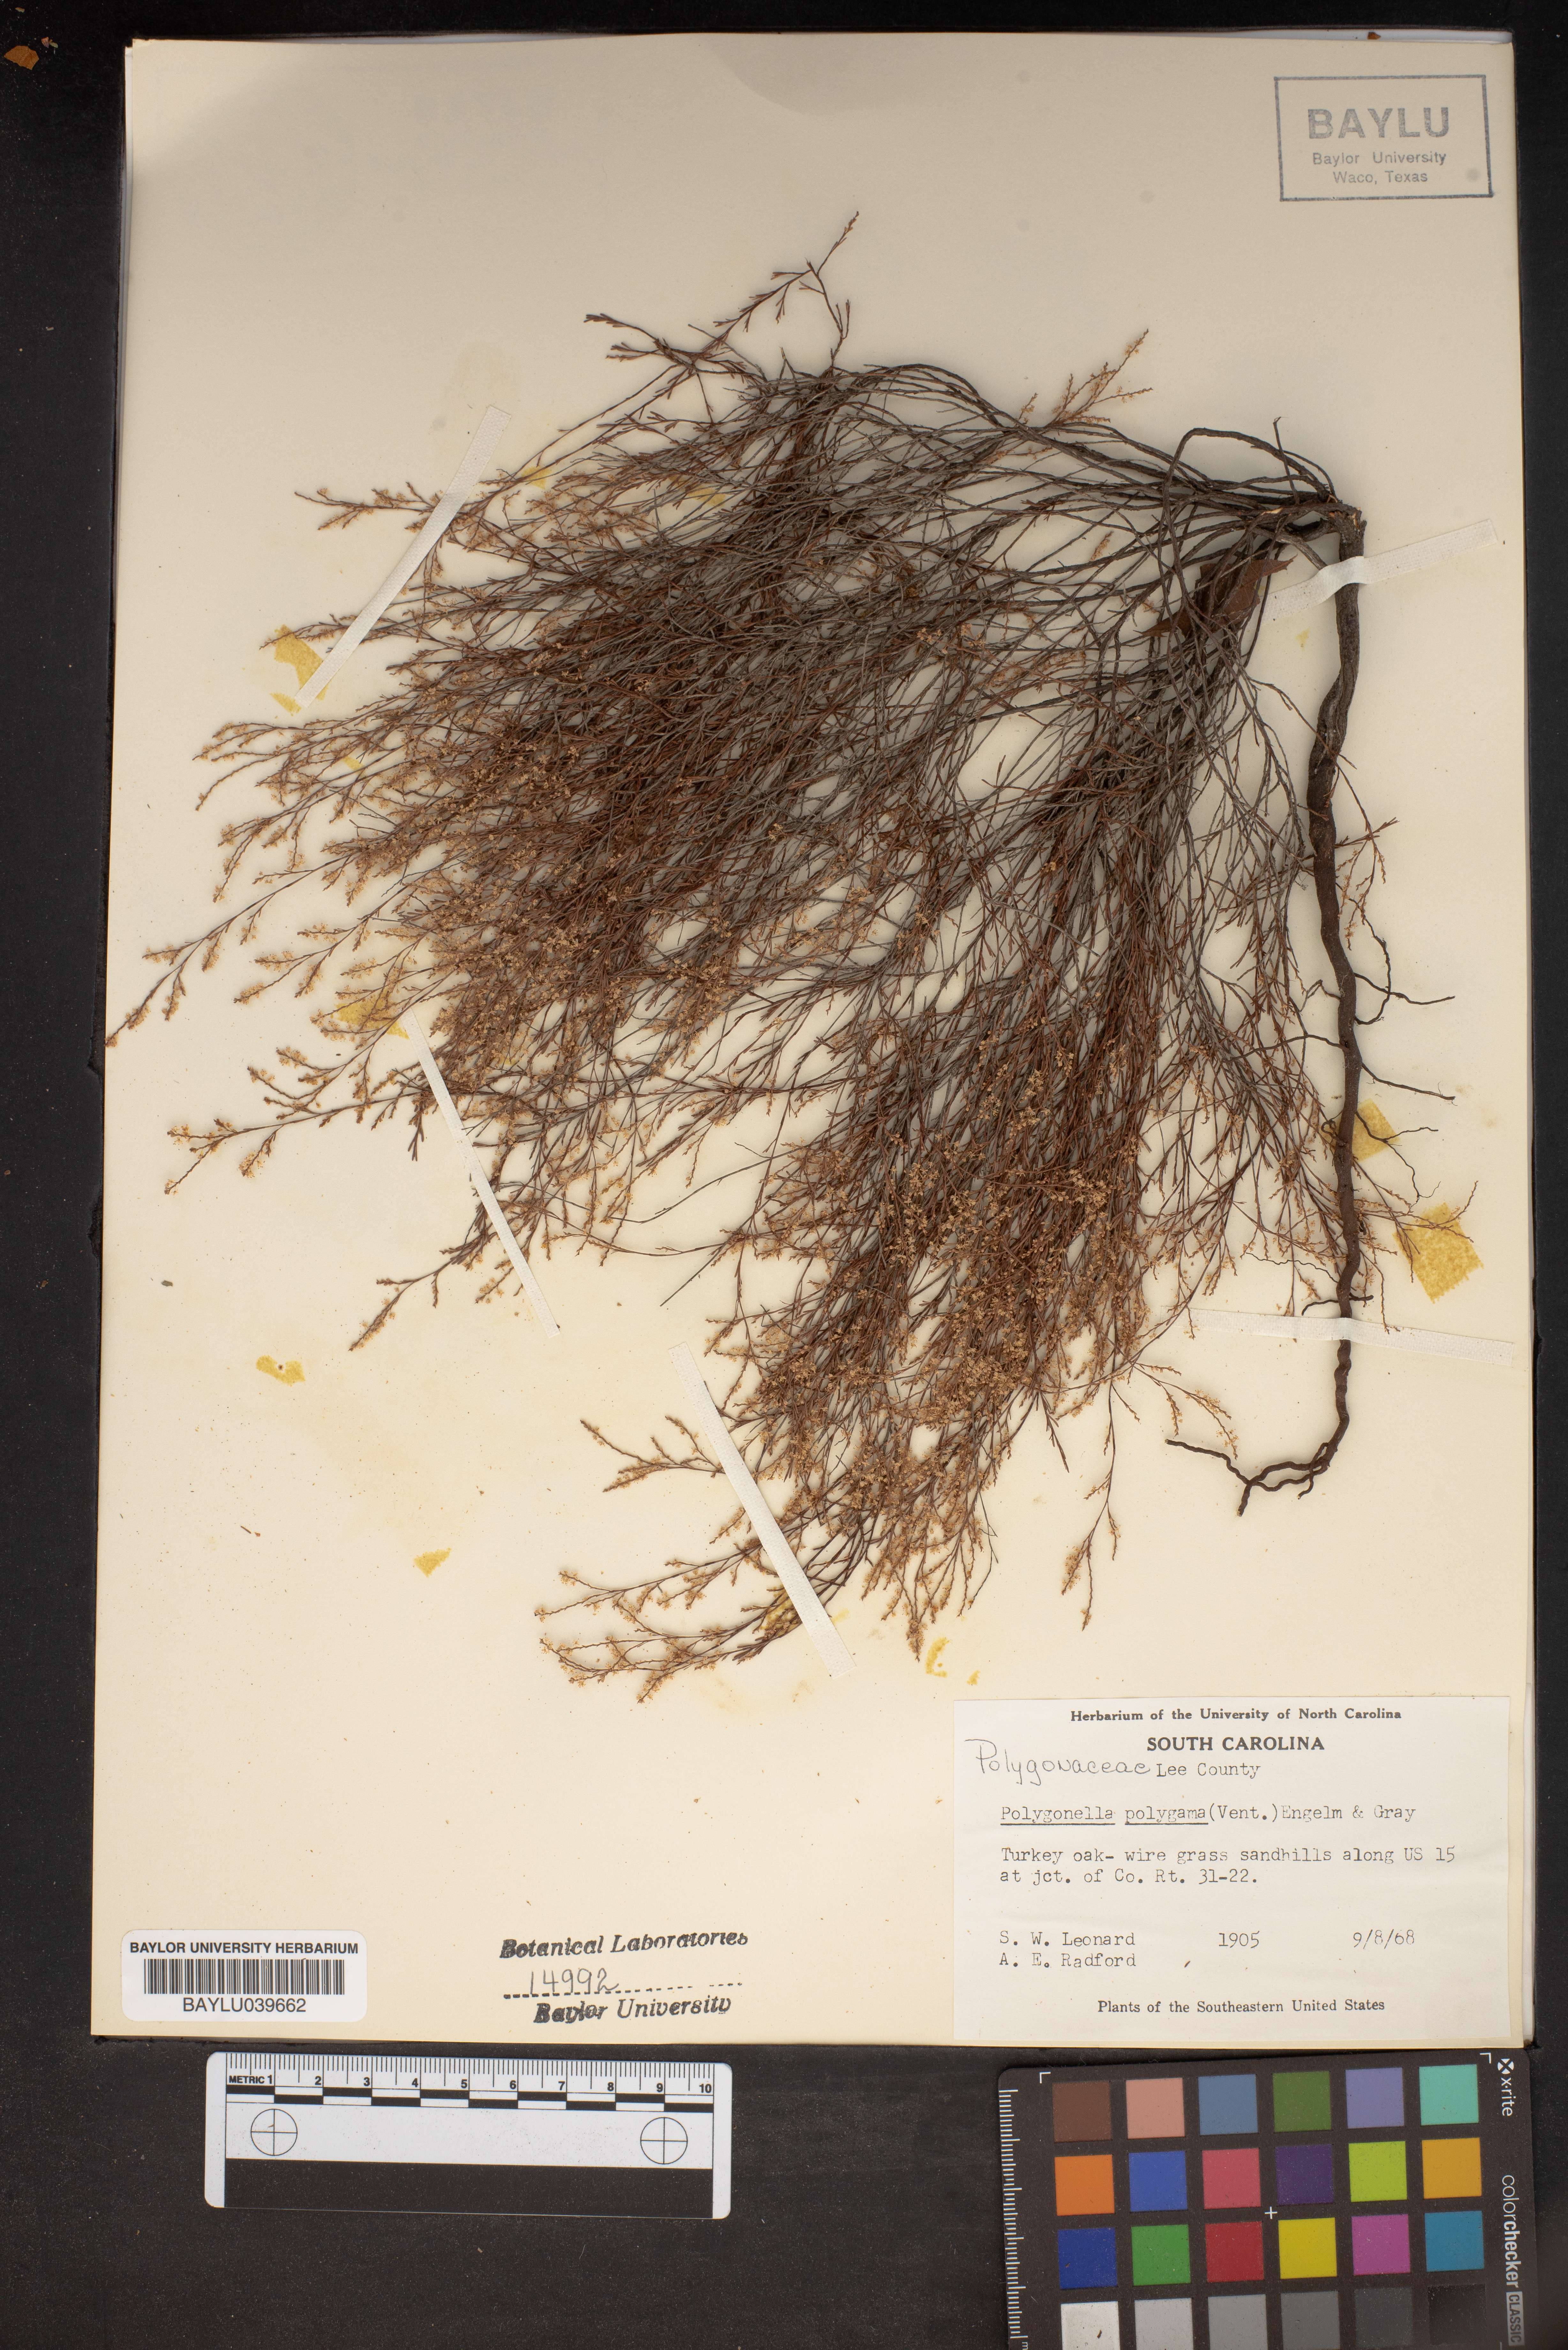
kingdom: Plantae
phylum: Tracheophyta
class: Magnoliopsida
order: Caryophyllales
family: Polygonaceae
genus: Polygonella
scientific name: Polygonella polygama
